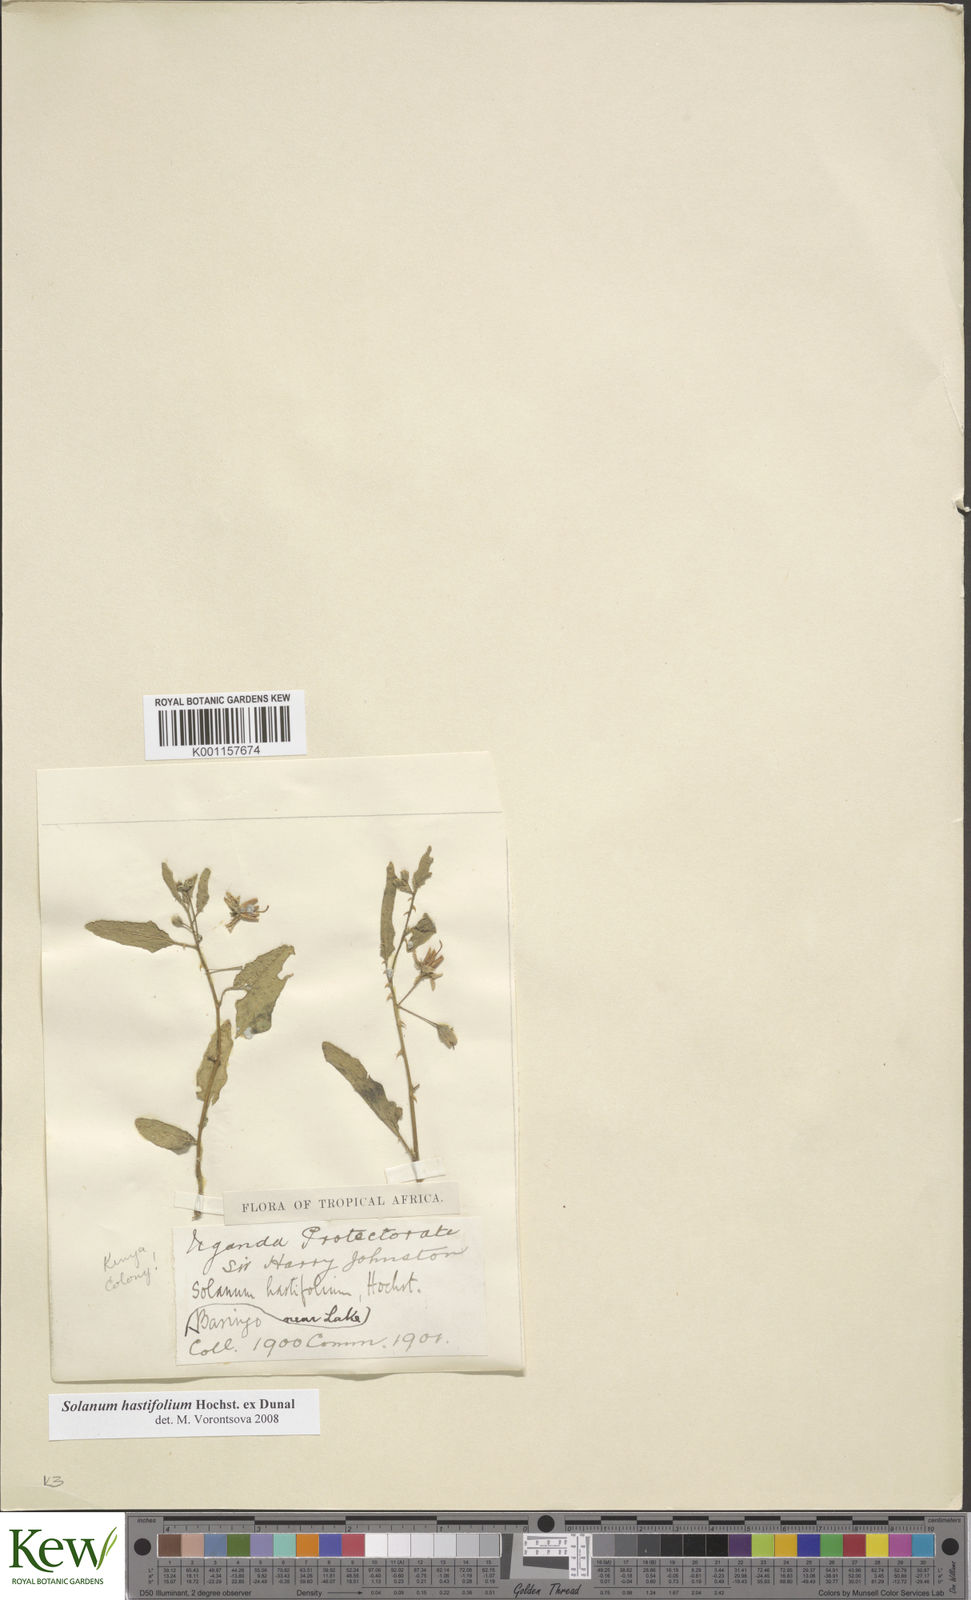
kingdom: Plantae
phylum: Tracheophyta
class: Magnoliopsida
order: Solanales
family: Solanaceae
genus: Solanum
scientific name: Solanum hastifolium
